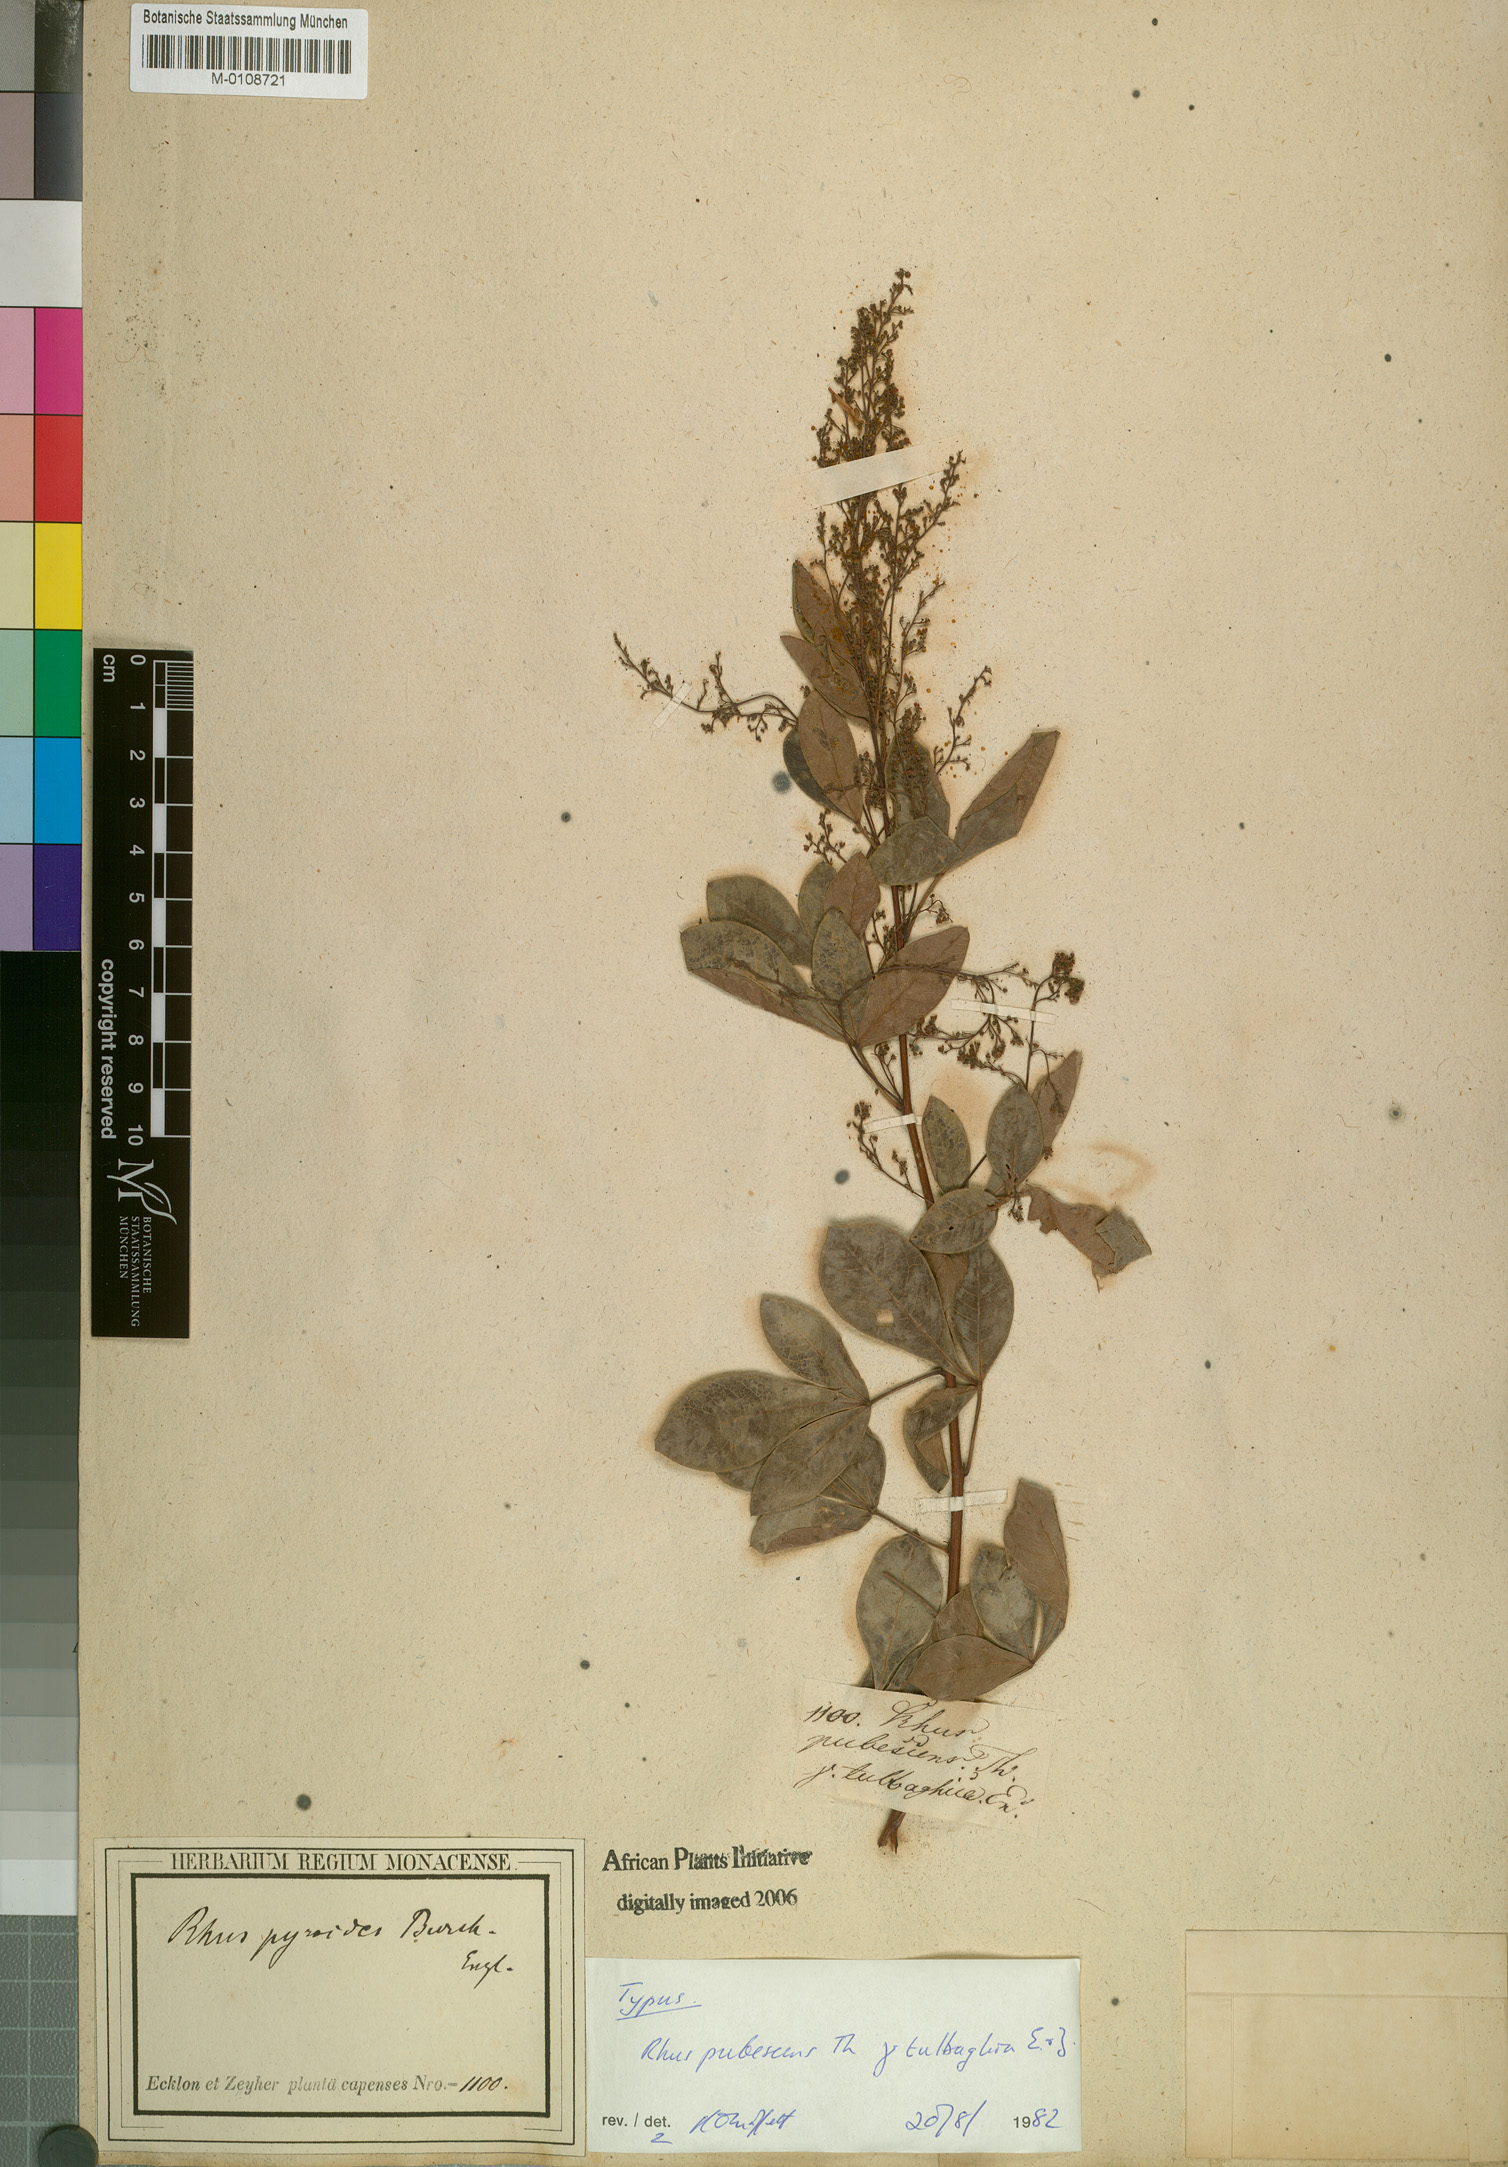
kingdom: Plantae
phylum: Tracheophyta
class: Magnoliopsida
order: Sapindales
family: Anacardiaceae
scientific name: Anacardiaceae
